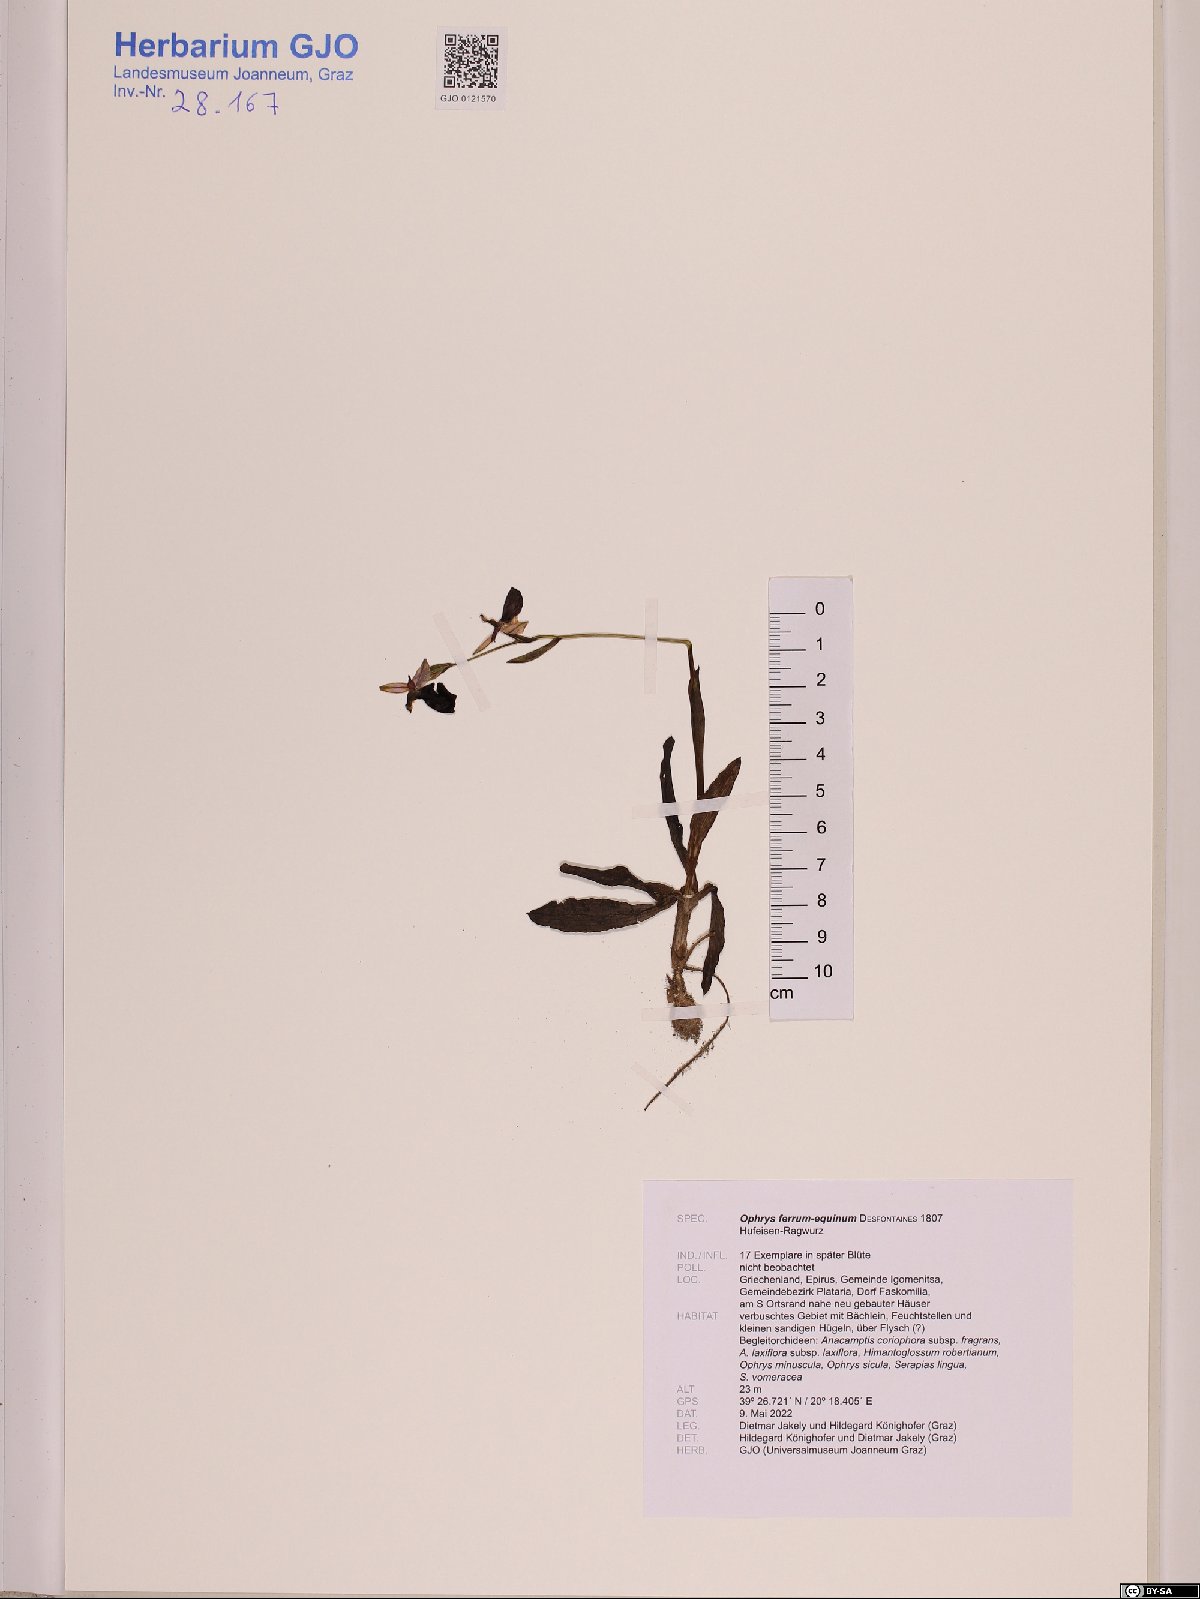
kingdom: Plantae
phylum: Tracheophyta
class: Liliopsida
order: Asparagales
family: Orchidaceae
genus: Ophrys
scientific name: Ophrys ferrum-equinum
